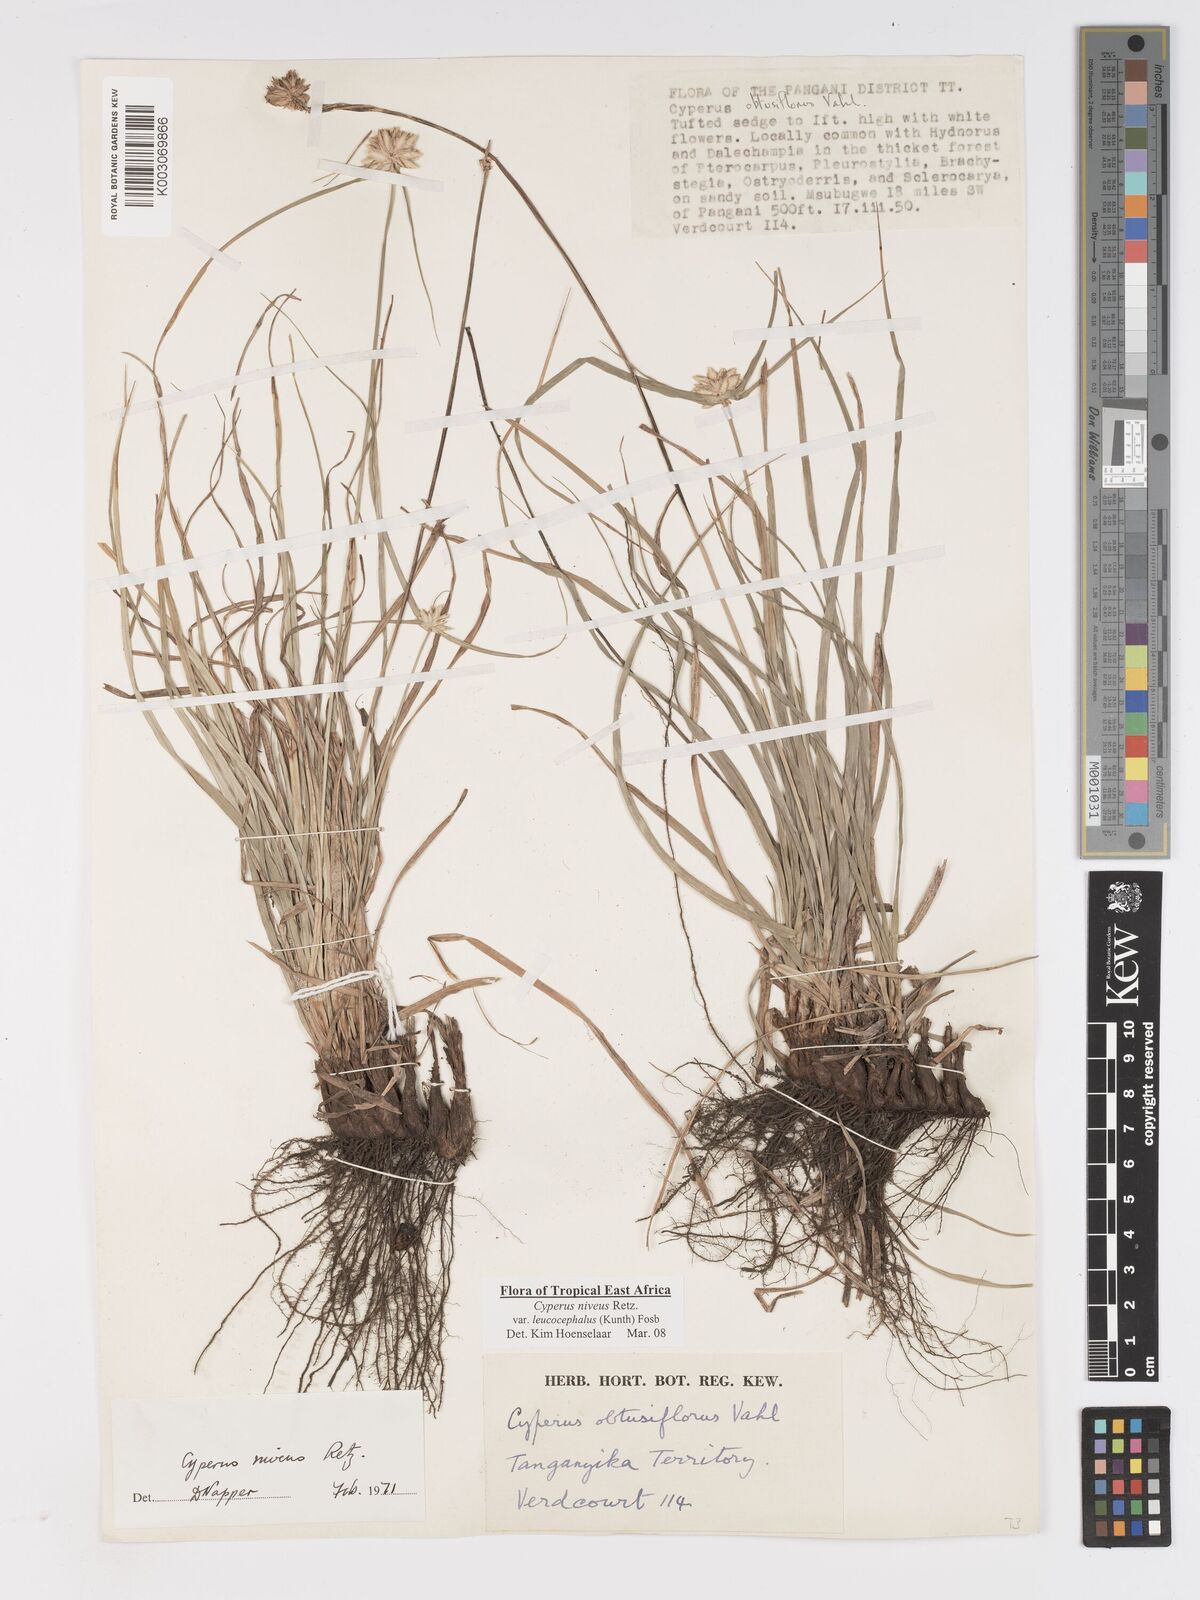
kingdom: Plantae
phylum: Tracheophyta
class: Liliopsida
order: Poales
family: Cyperaceae
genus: Cyperus
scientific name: Cyperus niveus
